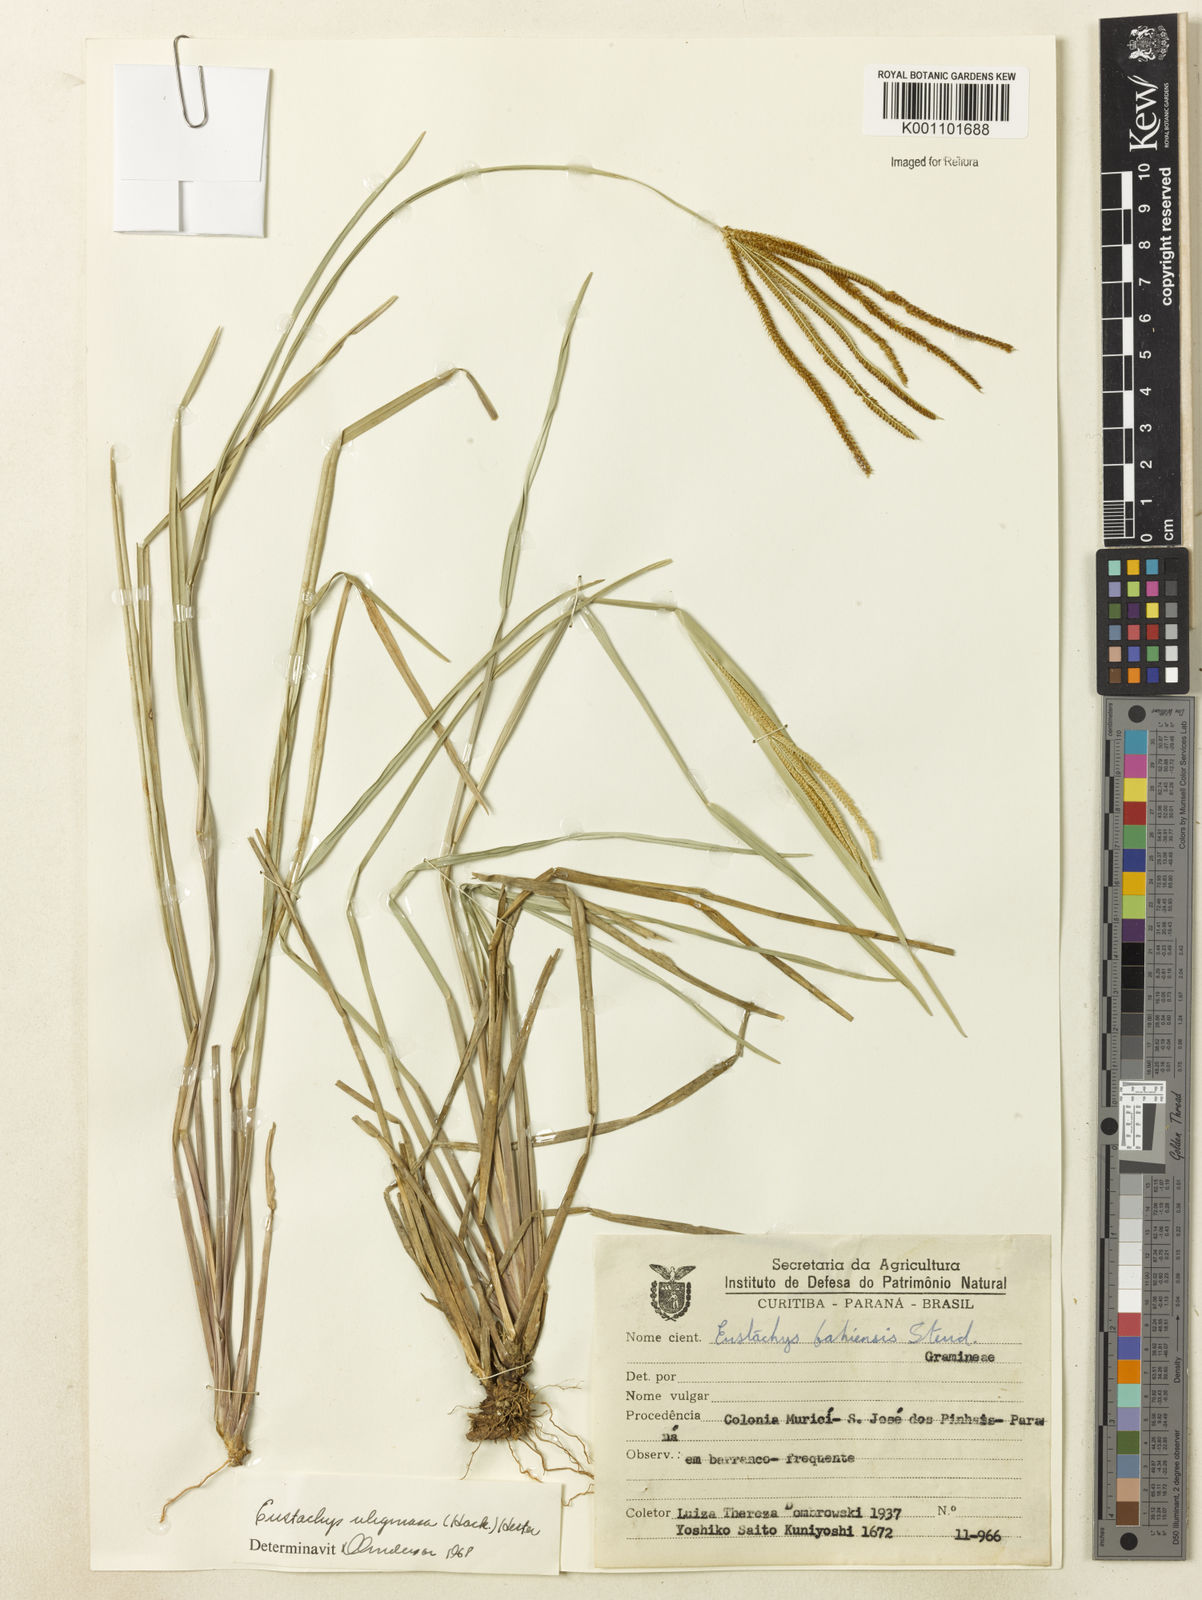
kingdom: Plantae
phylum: Tracheophyta
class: Liliopsida
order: Poales
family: Poaceae
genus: Eustachys
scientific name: Eustachys uliginosa
